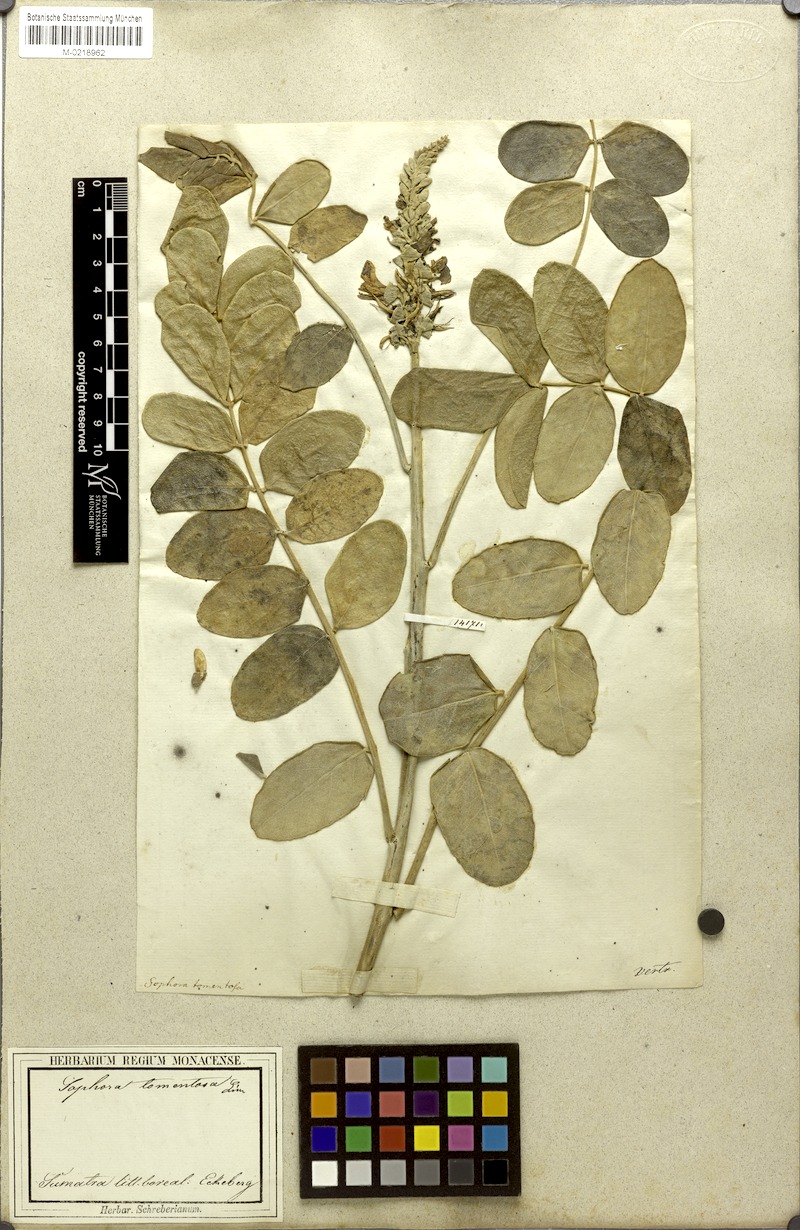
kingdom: Plantae
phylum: Tracheophyta
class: Magnoliopsida
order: Fabales
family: Fabaceae
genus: Sophora
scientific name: Sophora tomentosa
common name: Yellow necklacepod
